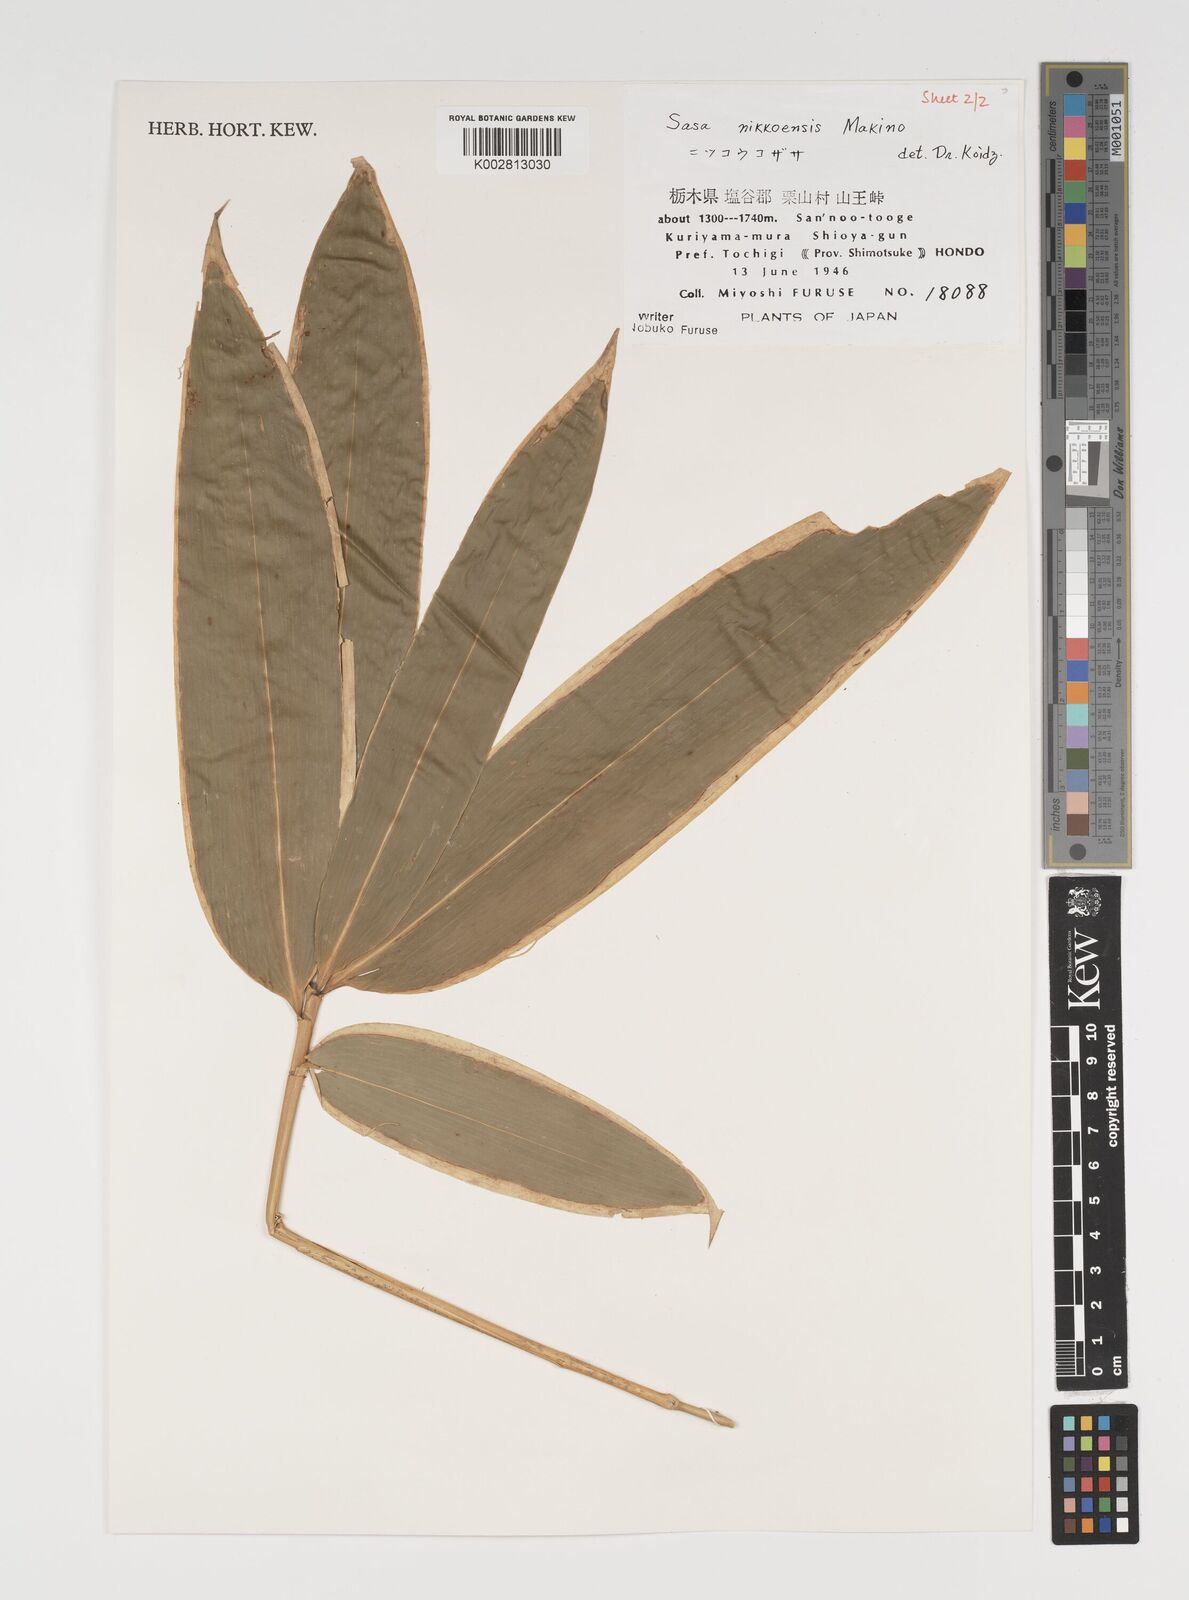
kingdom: Plantae
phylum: Tracheophyta
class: Liliopsida
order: Poales
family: Poaceae
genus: Sasa
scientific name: Sasa chartacea
